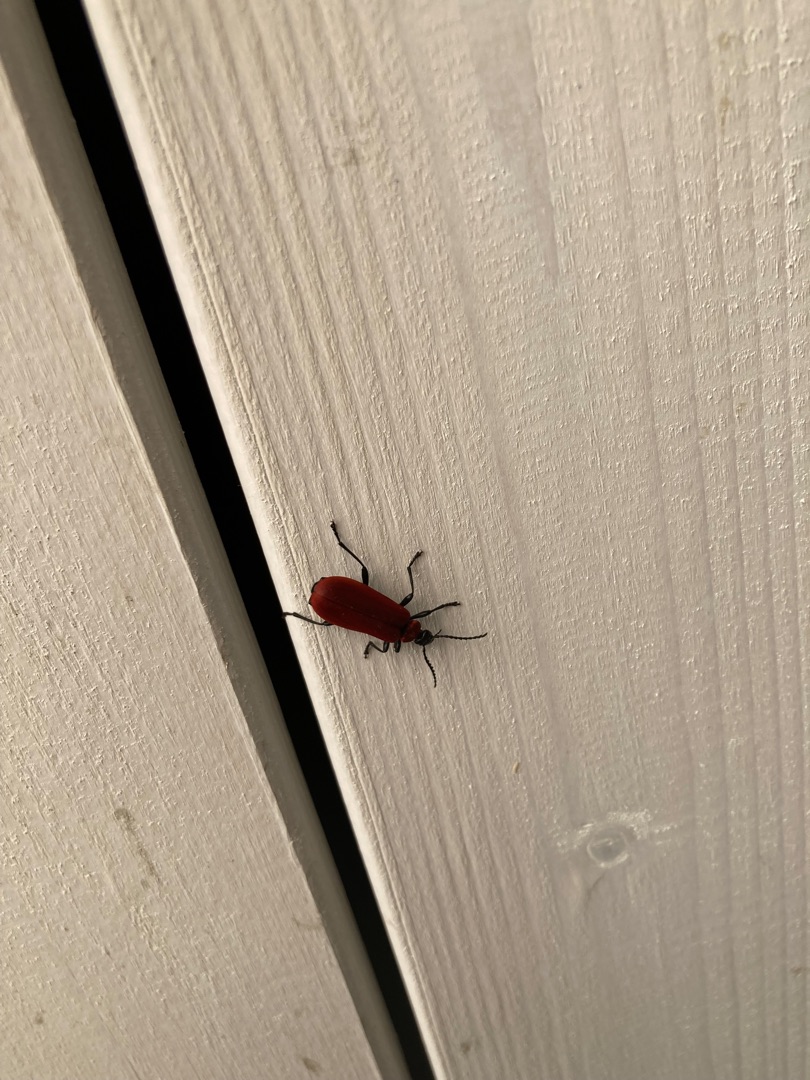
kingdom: Animalia
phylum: Arthropoda
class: Insecta
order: Coleoptera
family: Pyrochroidae
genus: Pyrochroa
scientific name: Pyrochroa coccinea
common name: Sorthovedet kardinalbille
